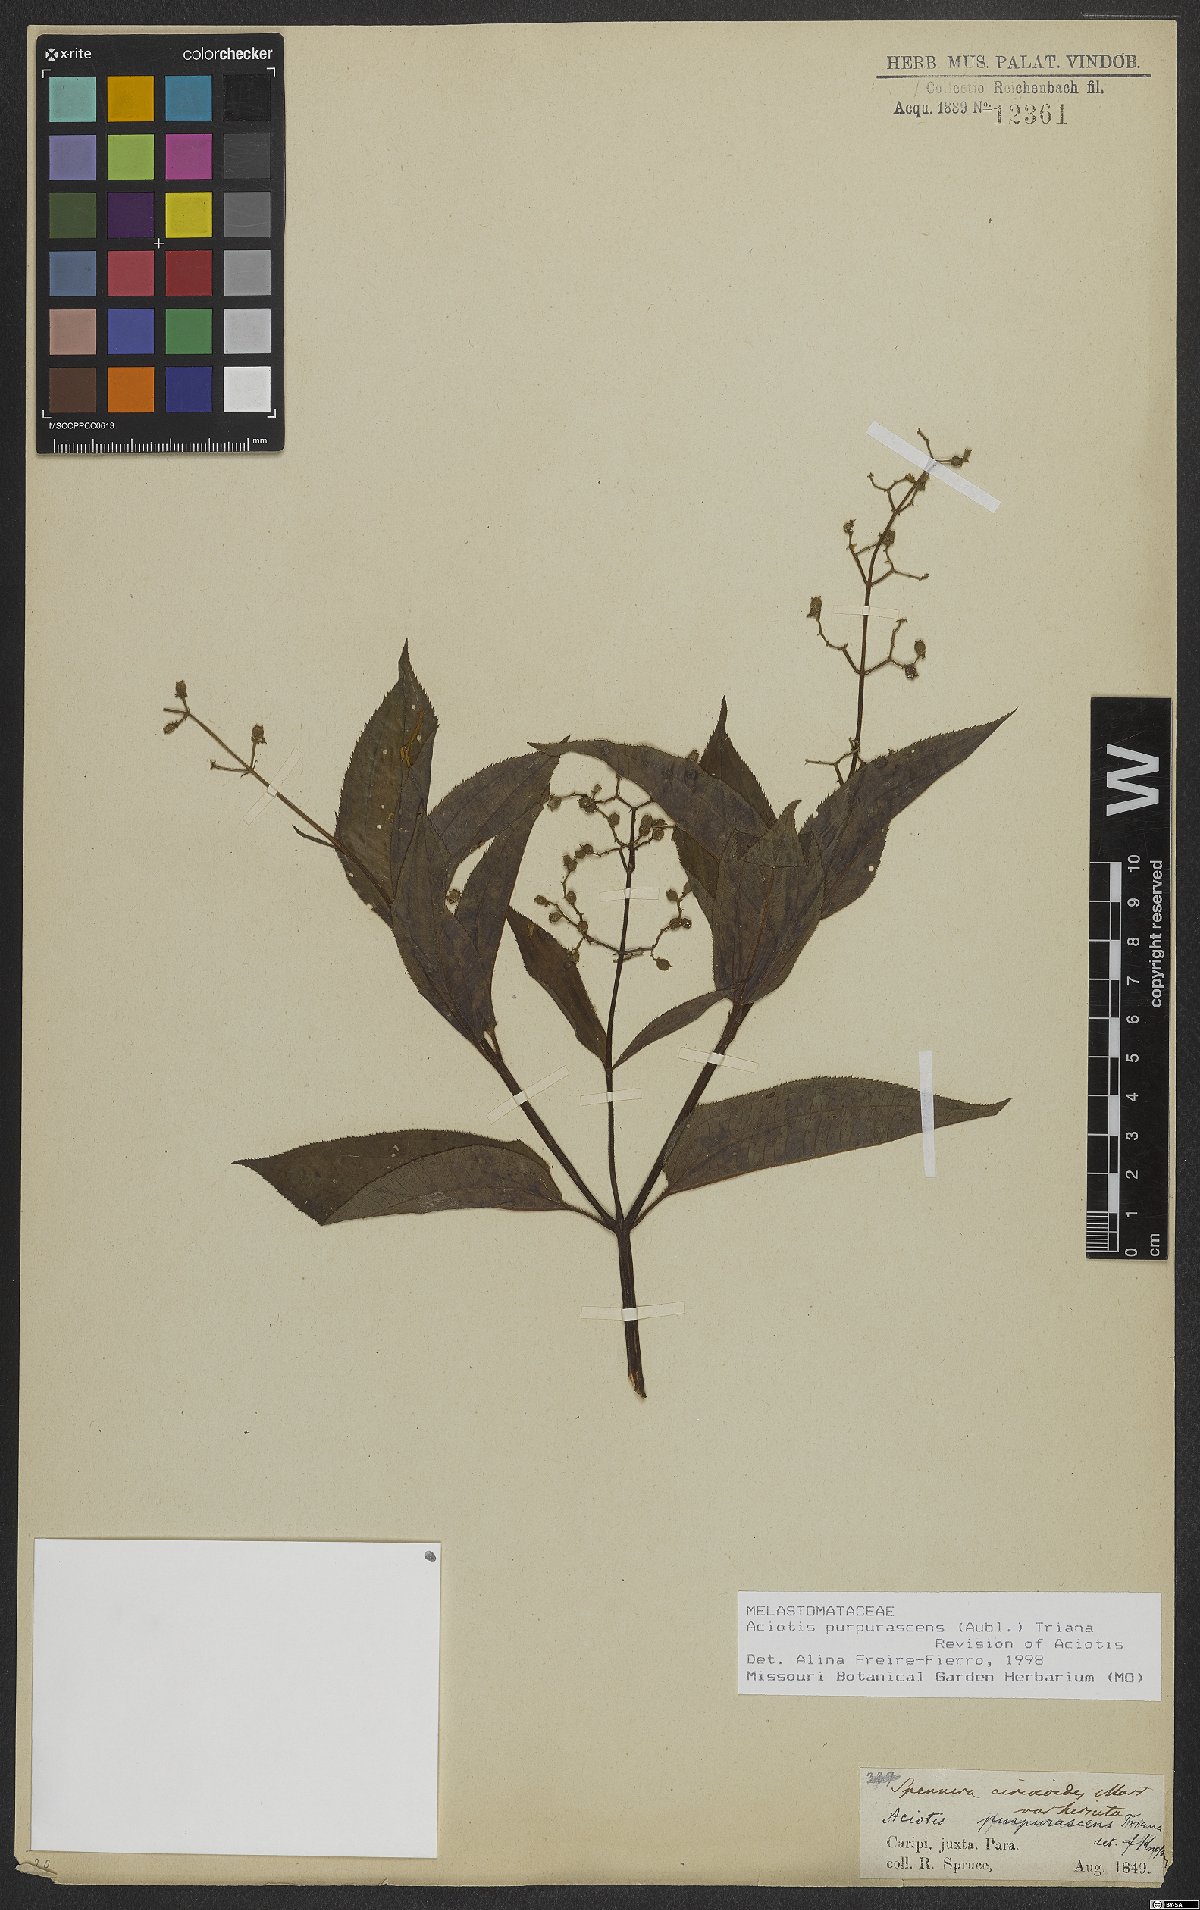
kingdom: Plantae
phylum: Tracheophyta
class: Magnoliopsida
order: Myrtales
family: Melastomataceae
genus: Aciotis
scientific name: Aciotis purpurascens
